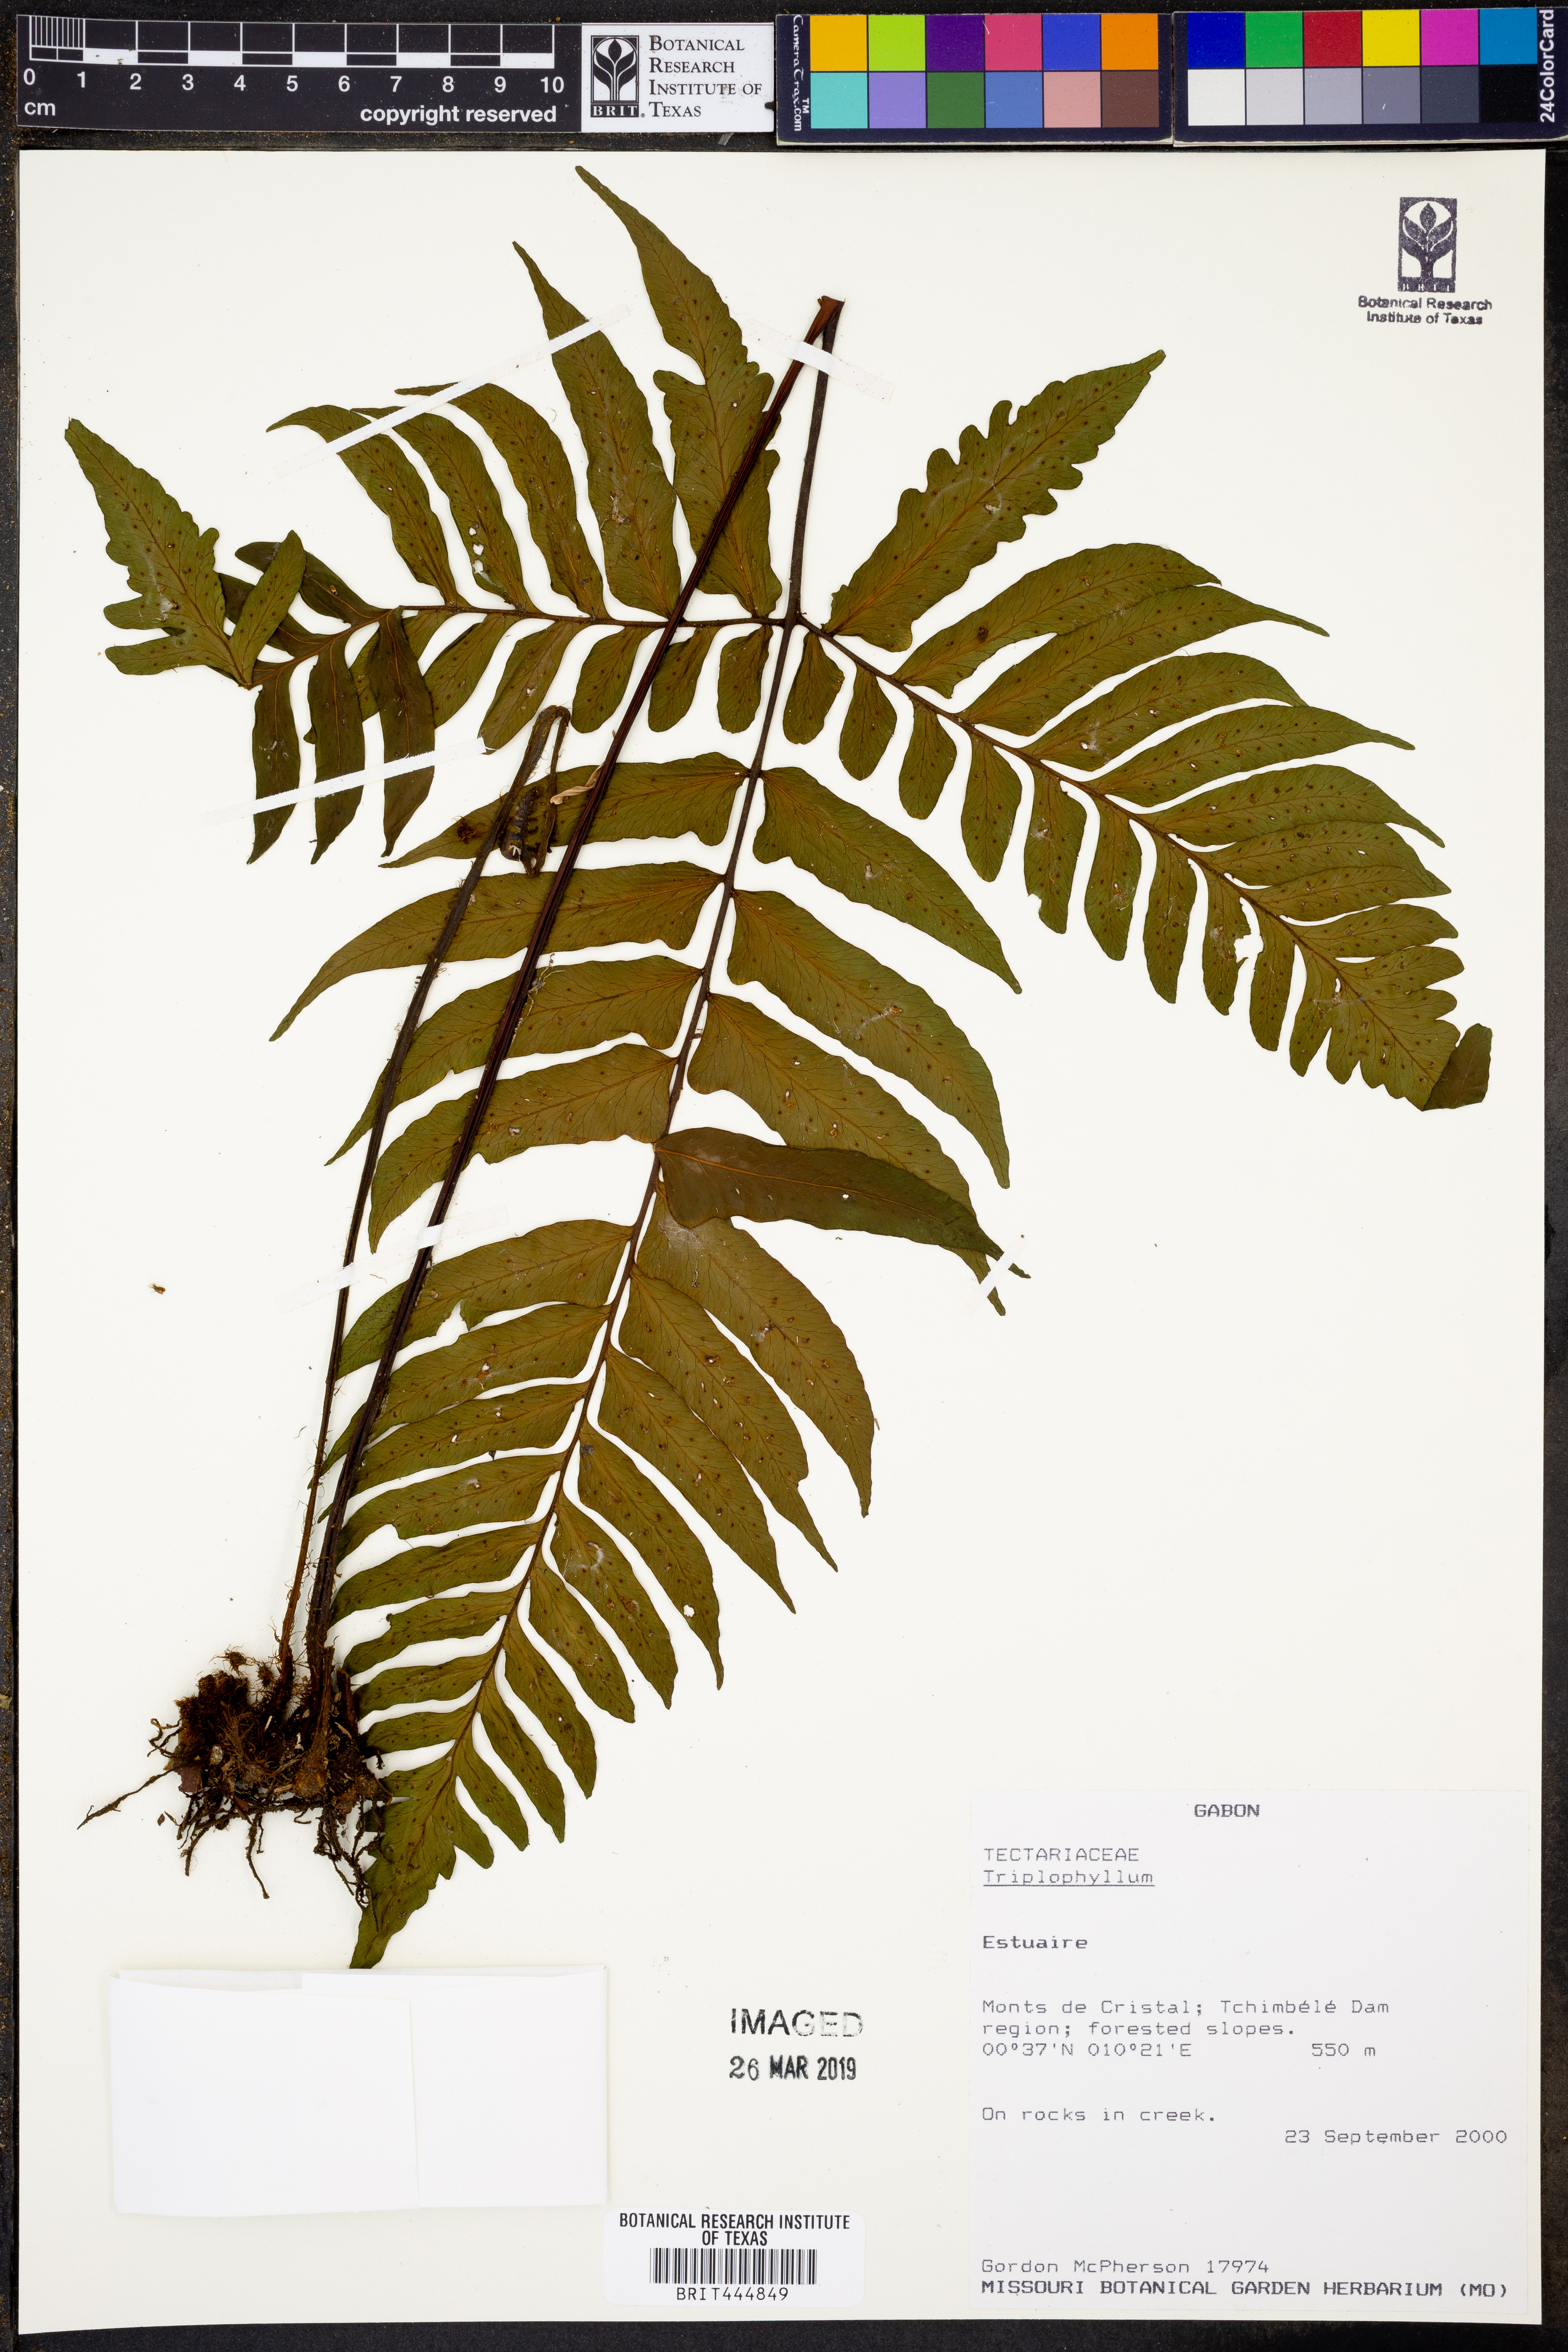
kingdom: Plantae
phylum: Tracheophyta
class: Polypodiopsida
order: Polypodiales
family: Tectariaceae
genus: Triplophyllum
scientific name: Triplophyllum
